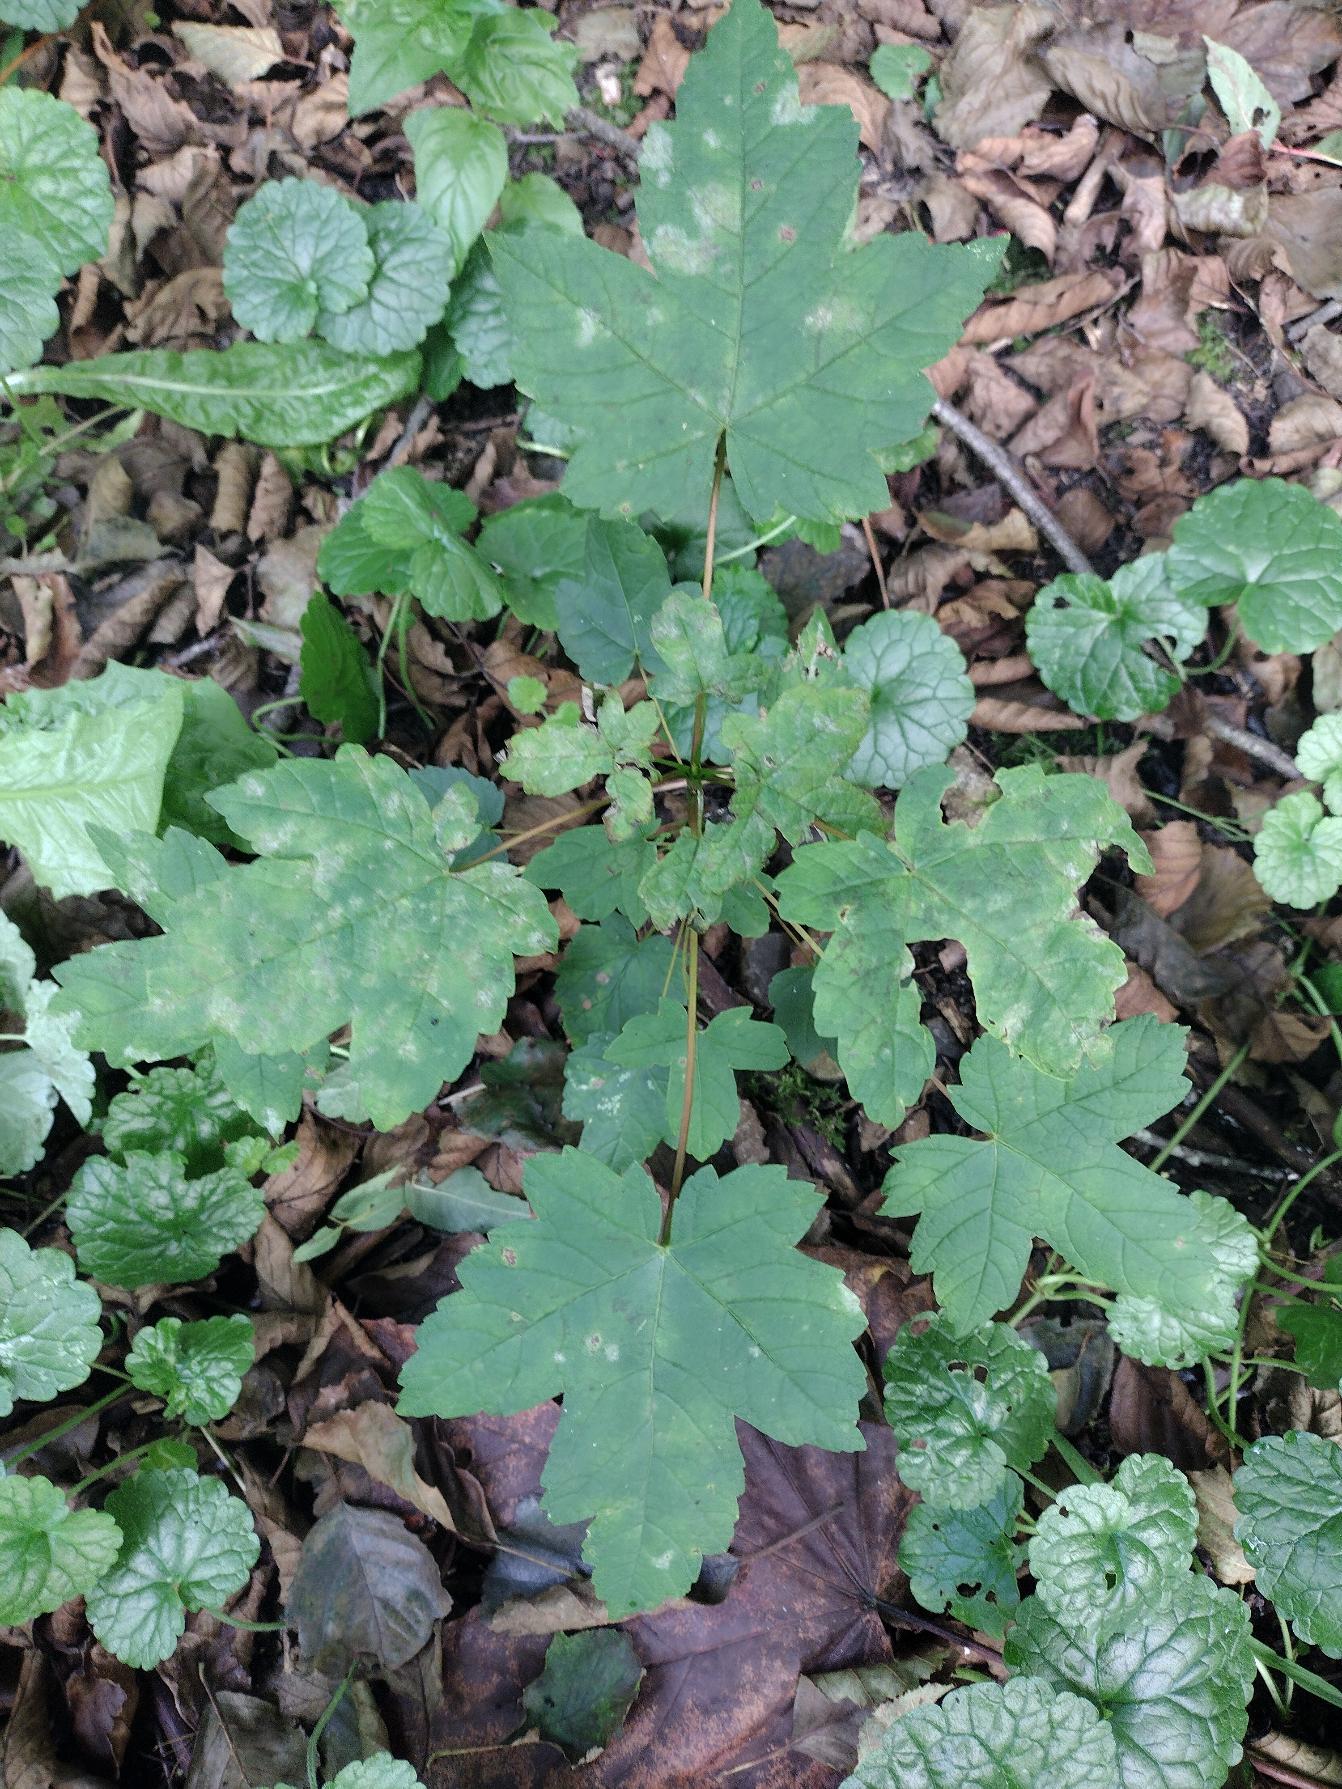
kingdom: Plantae
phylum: Tracheophyta
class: Magnoliopsida
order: Sapindales
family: Sapindaceae
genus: Acer
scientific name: Acer pseudoplatanus
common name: Ahorn
